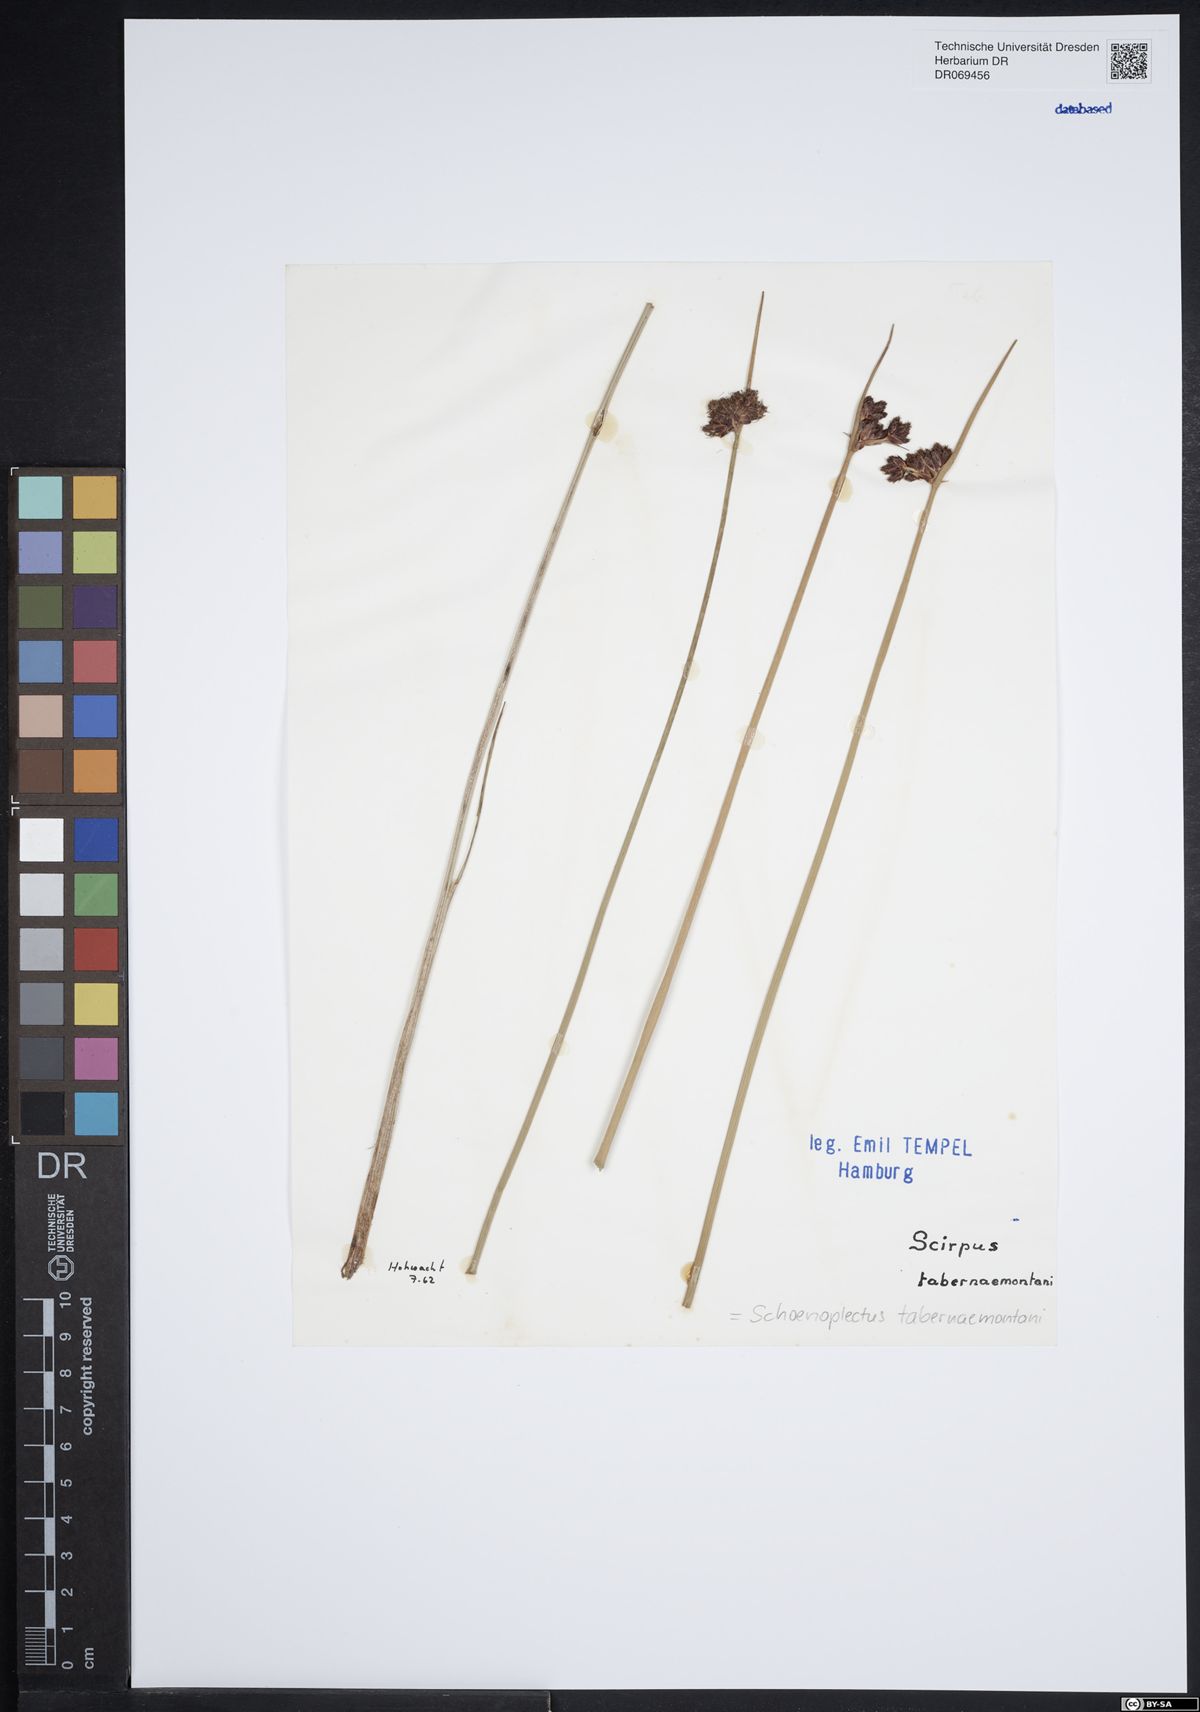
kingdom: Plantae
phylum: Tracheophyta
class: Liliopsida
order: Poales
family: Cyperaceae
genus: Schoenoplectus
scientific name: Schoenoplectus tabernaemontani
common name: Grey club-rush
